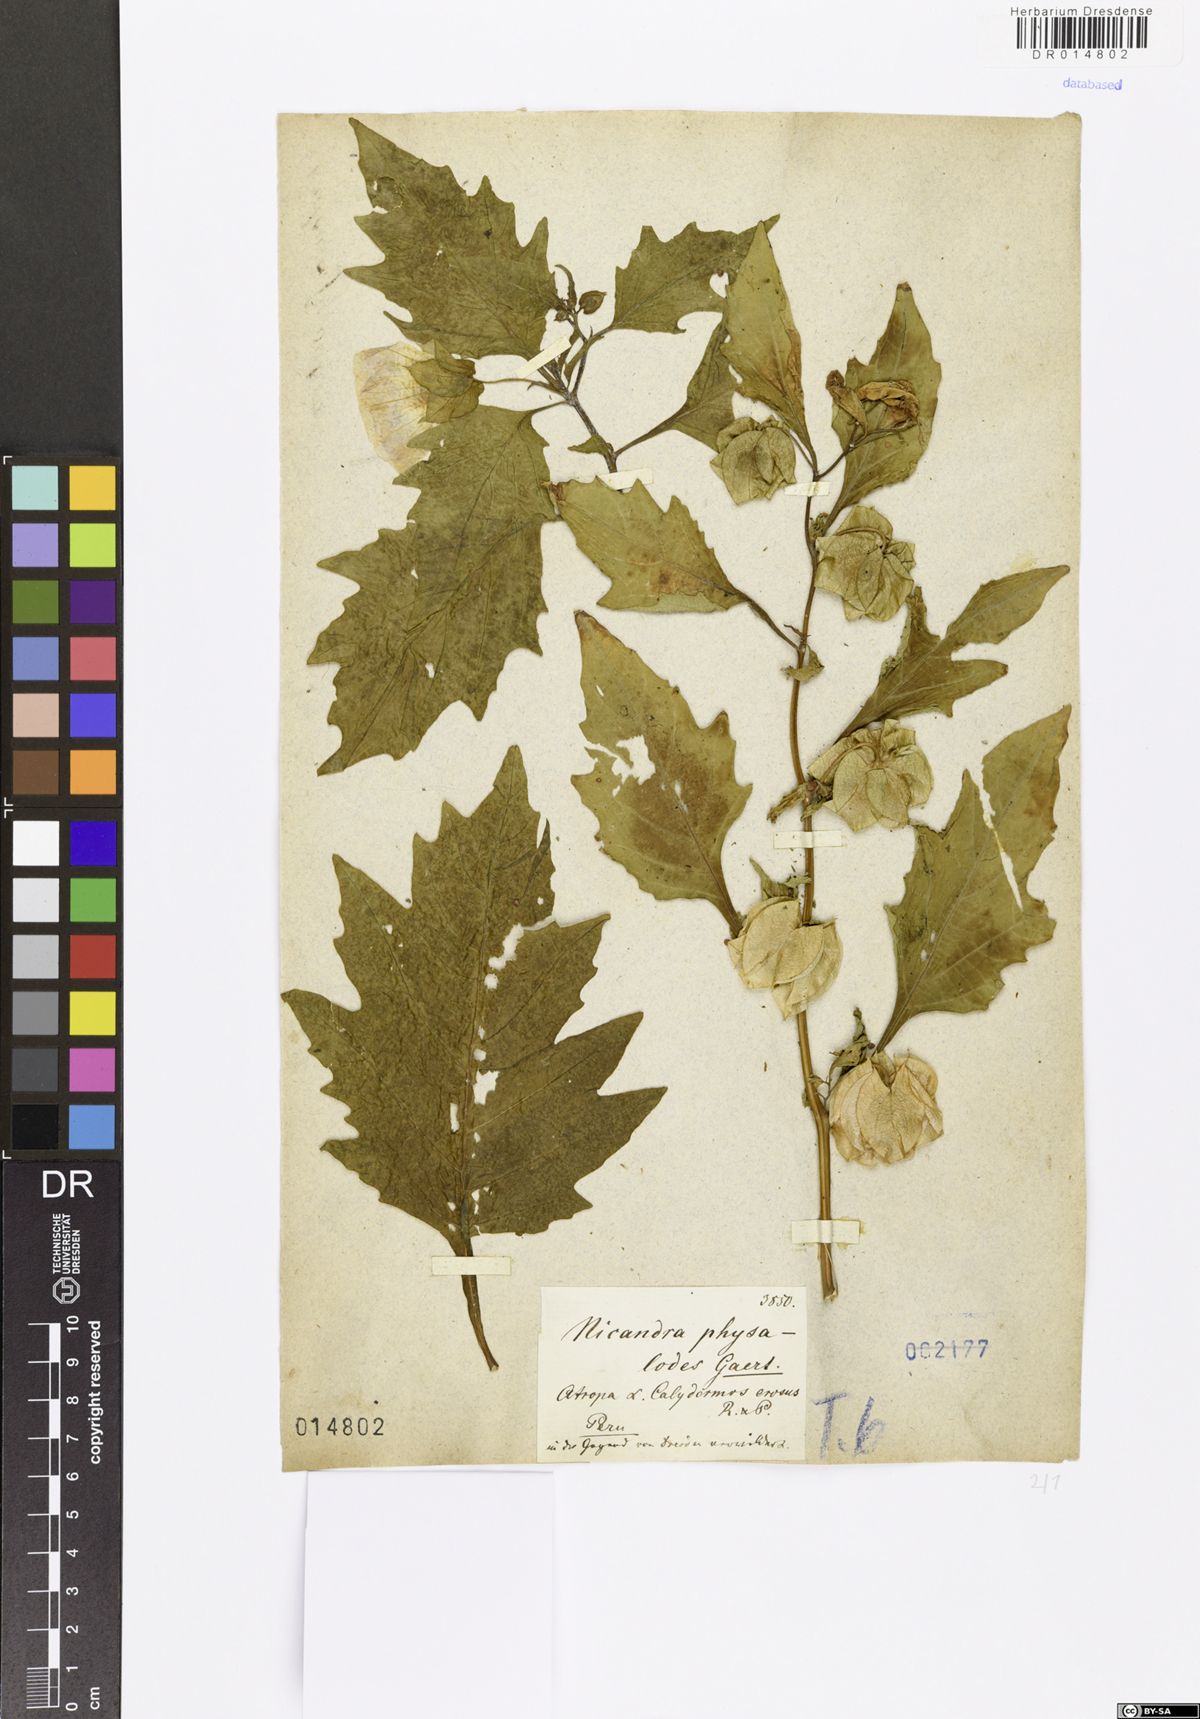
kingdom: Plantae
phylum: Tracheophyta
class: Magnoliopsida
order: Solanales
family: Solanaceae
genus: Nicandra
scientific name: Nicandra physalodes
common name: Apple-of-peru
